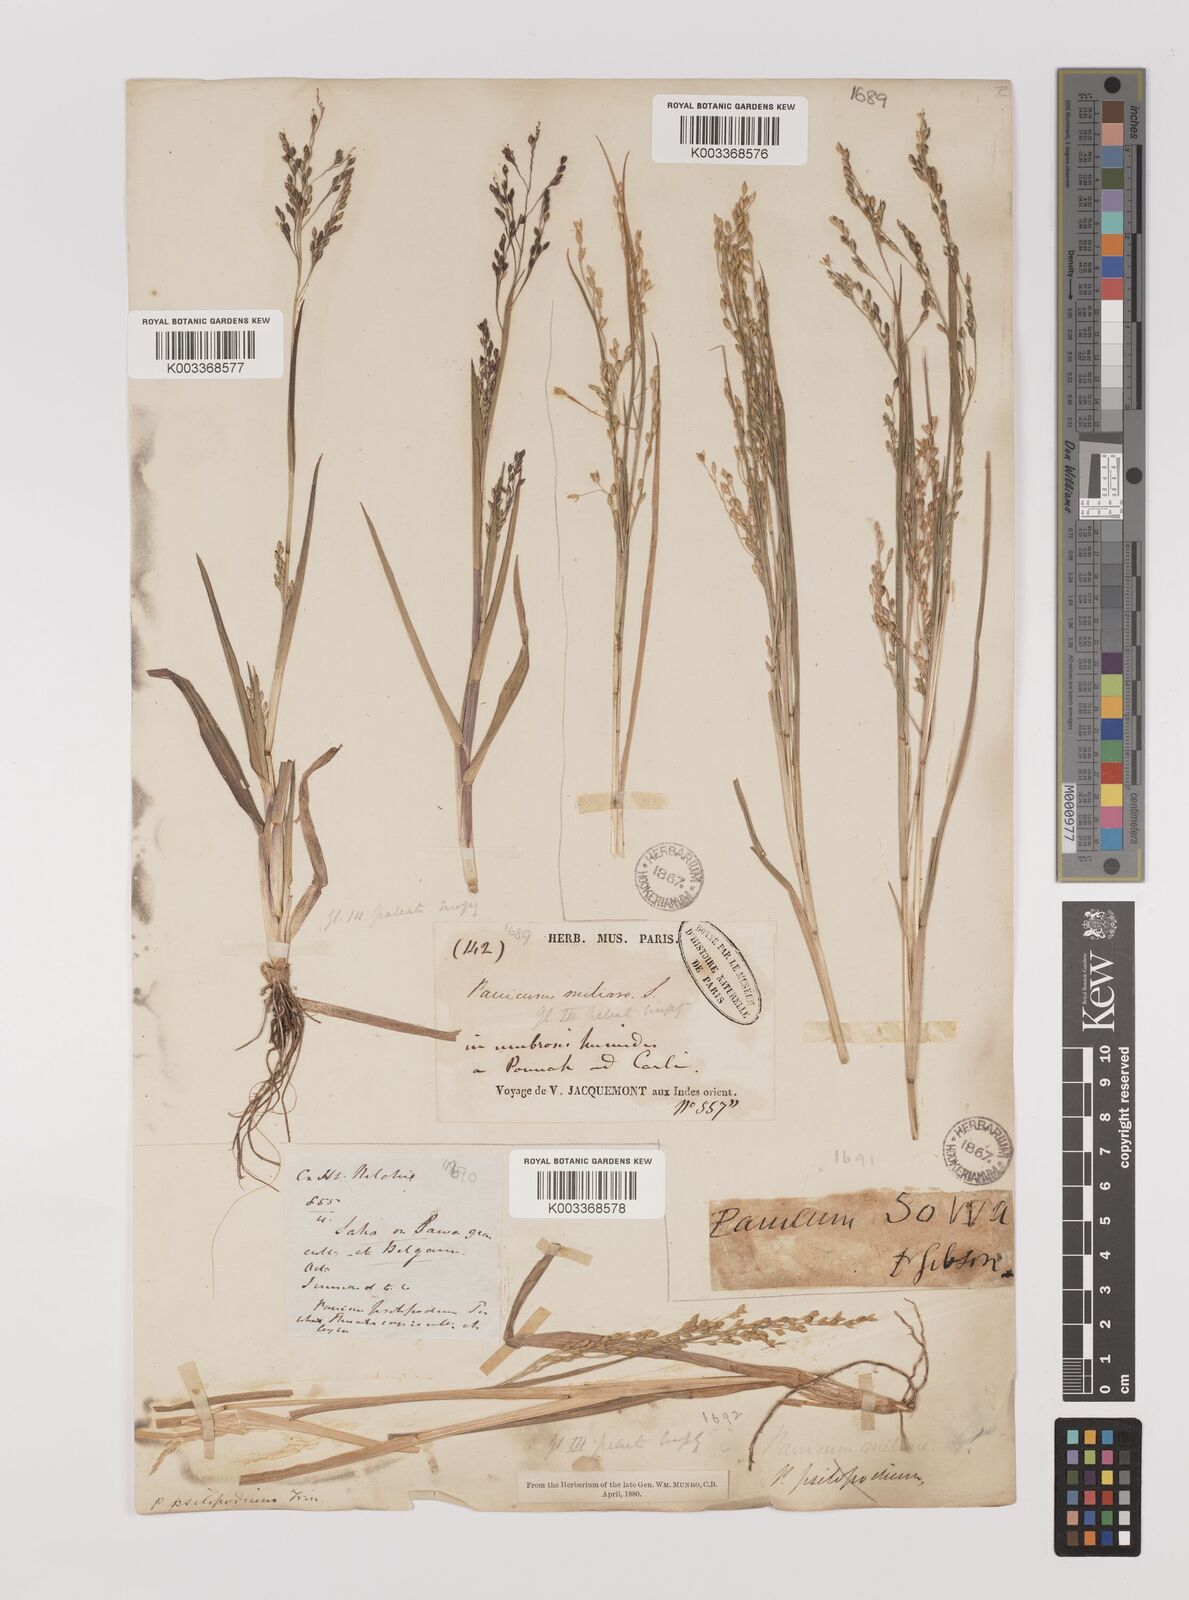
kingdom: Plantae
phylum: Tracheophyta
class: Liliopsida
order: Poales
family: Poaceae
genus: Panicum
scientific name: Panicum sumatrense
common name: Little millet
